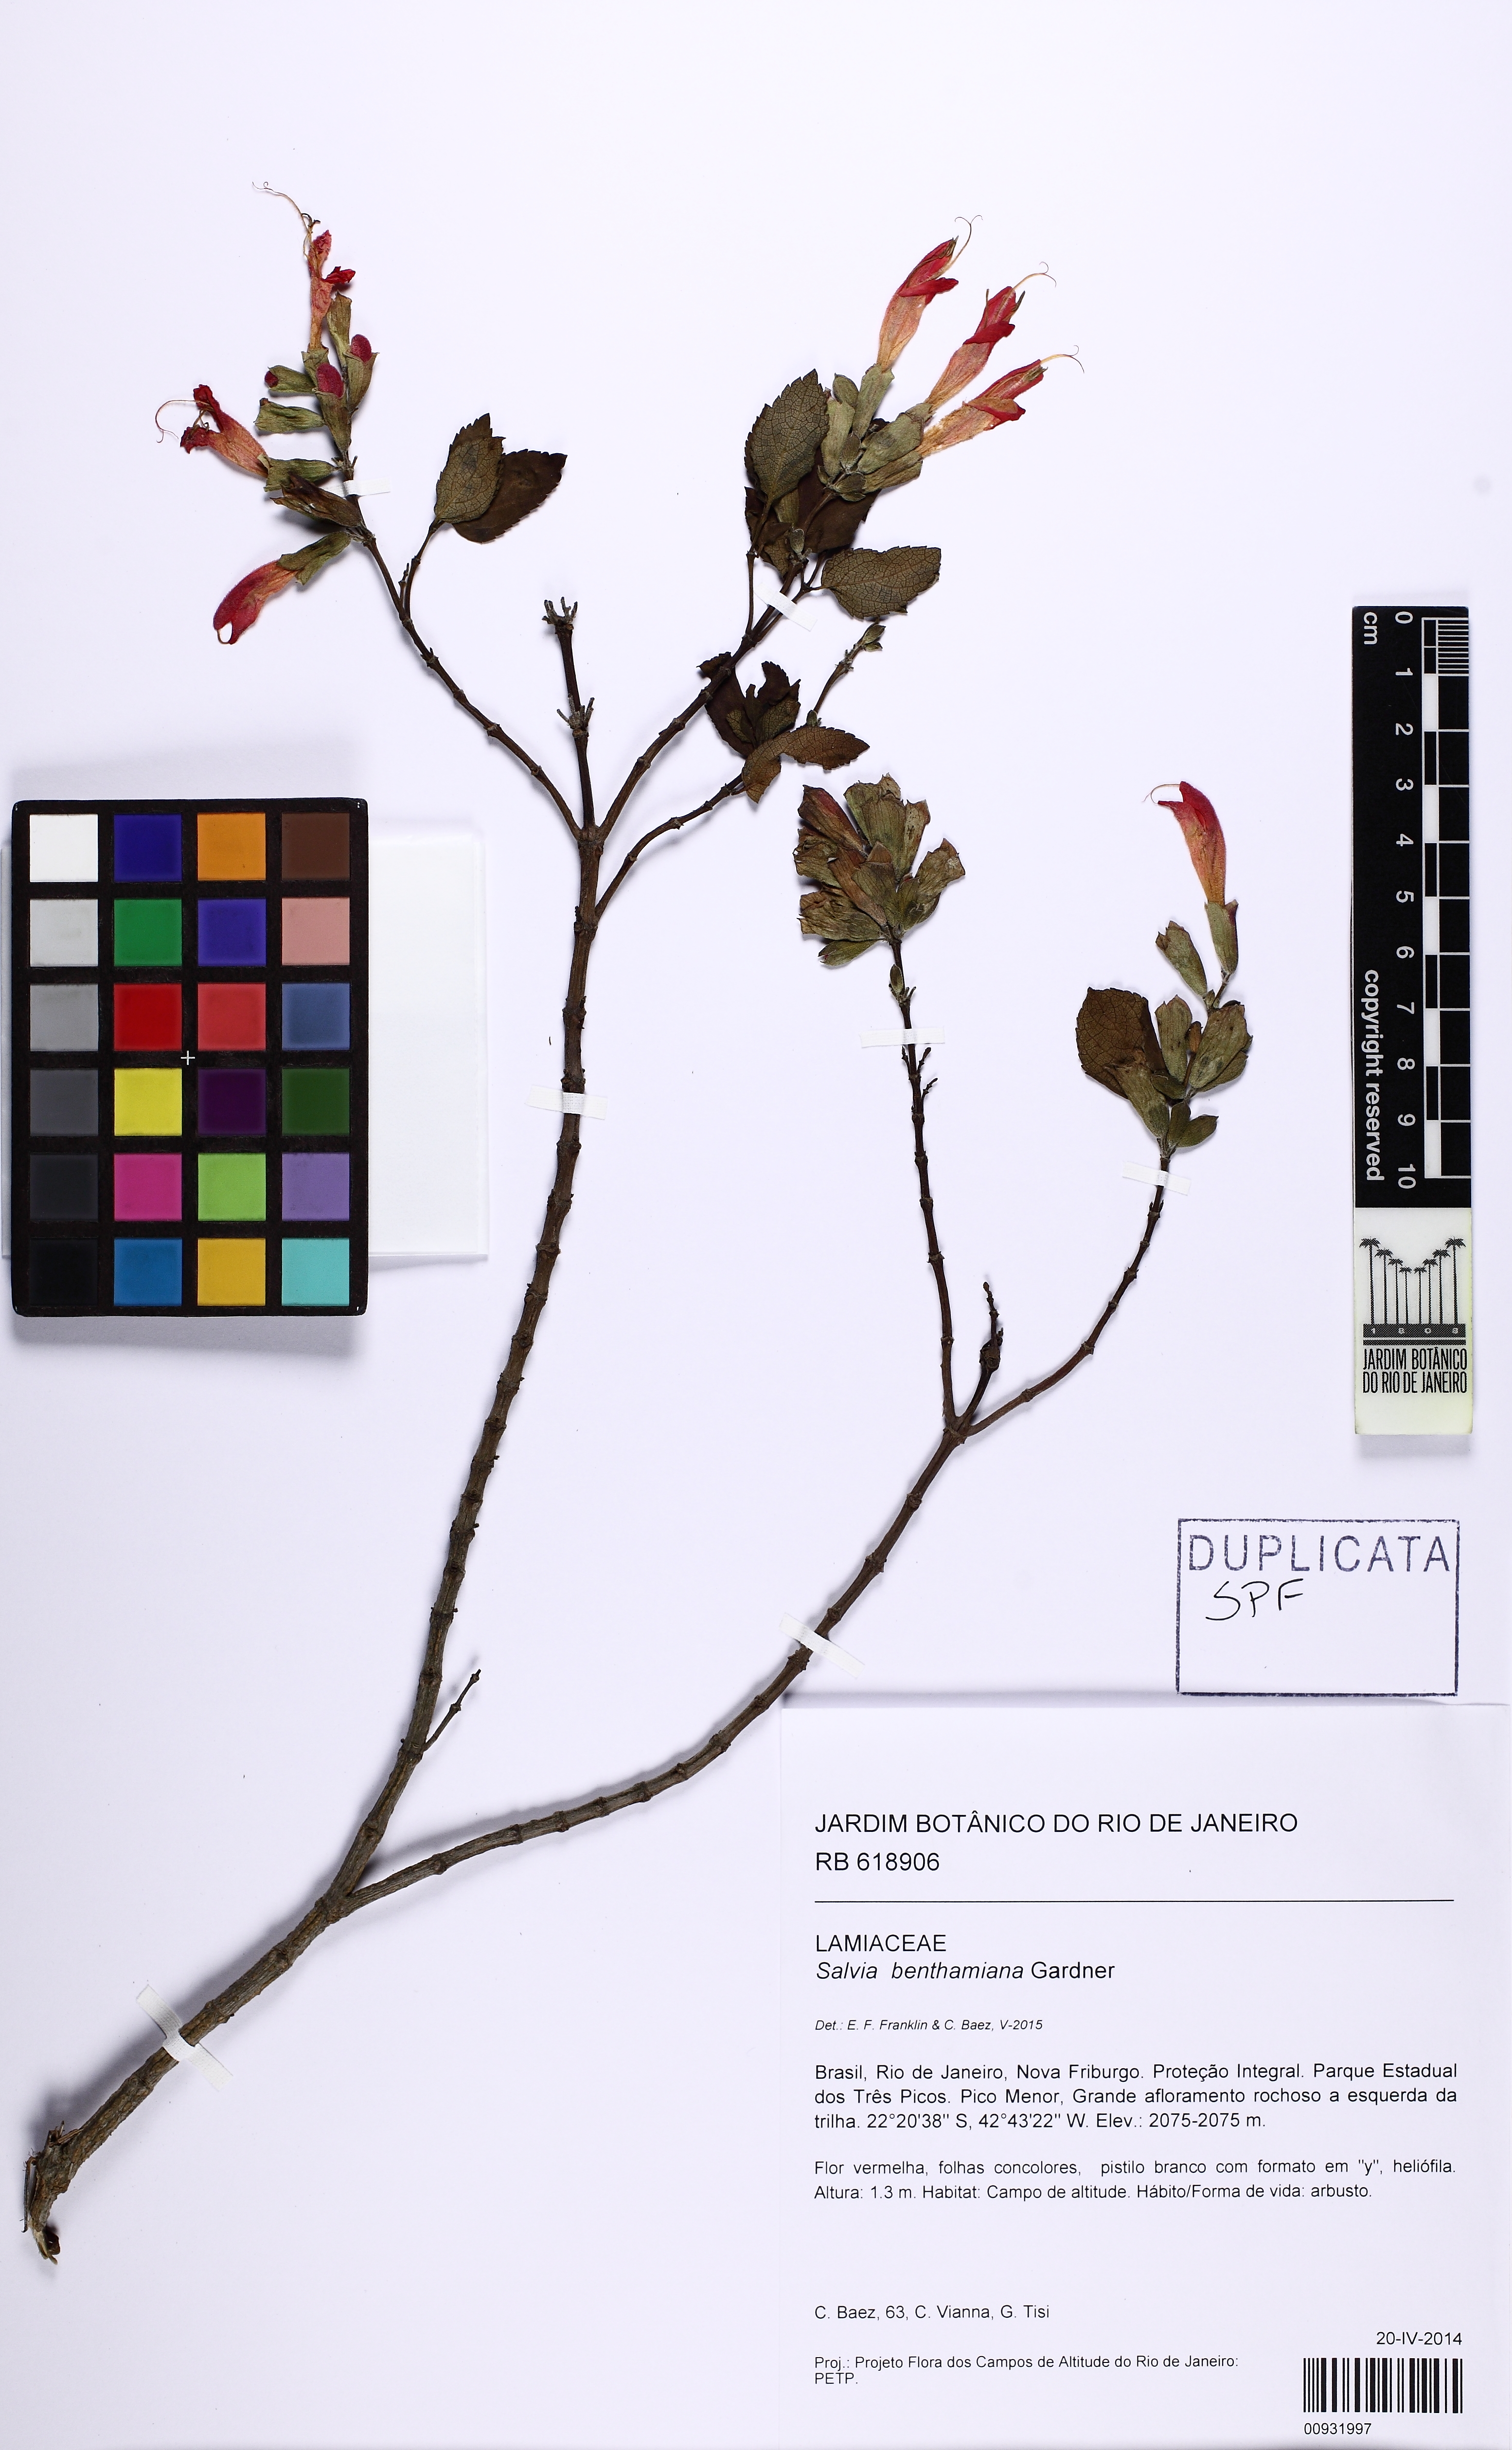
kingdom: Plantae
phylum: Tracheophyta
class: Magnoliopsida
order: Lamiales
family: Lamiaceae
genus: Salvia
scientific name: Salvia benthamiana
